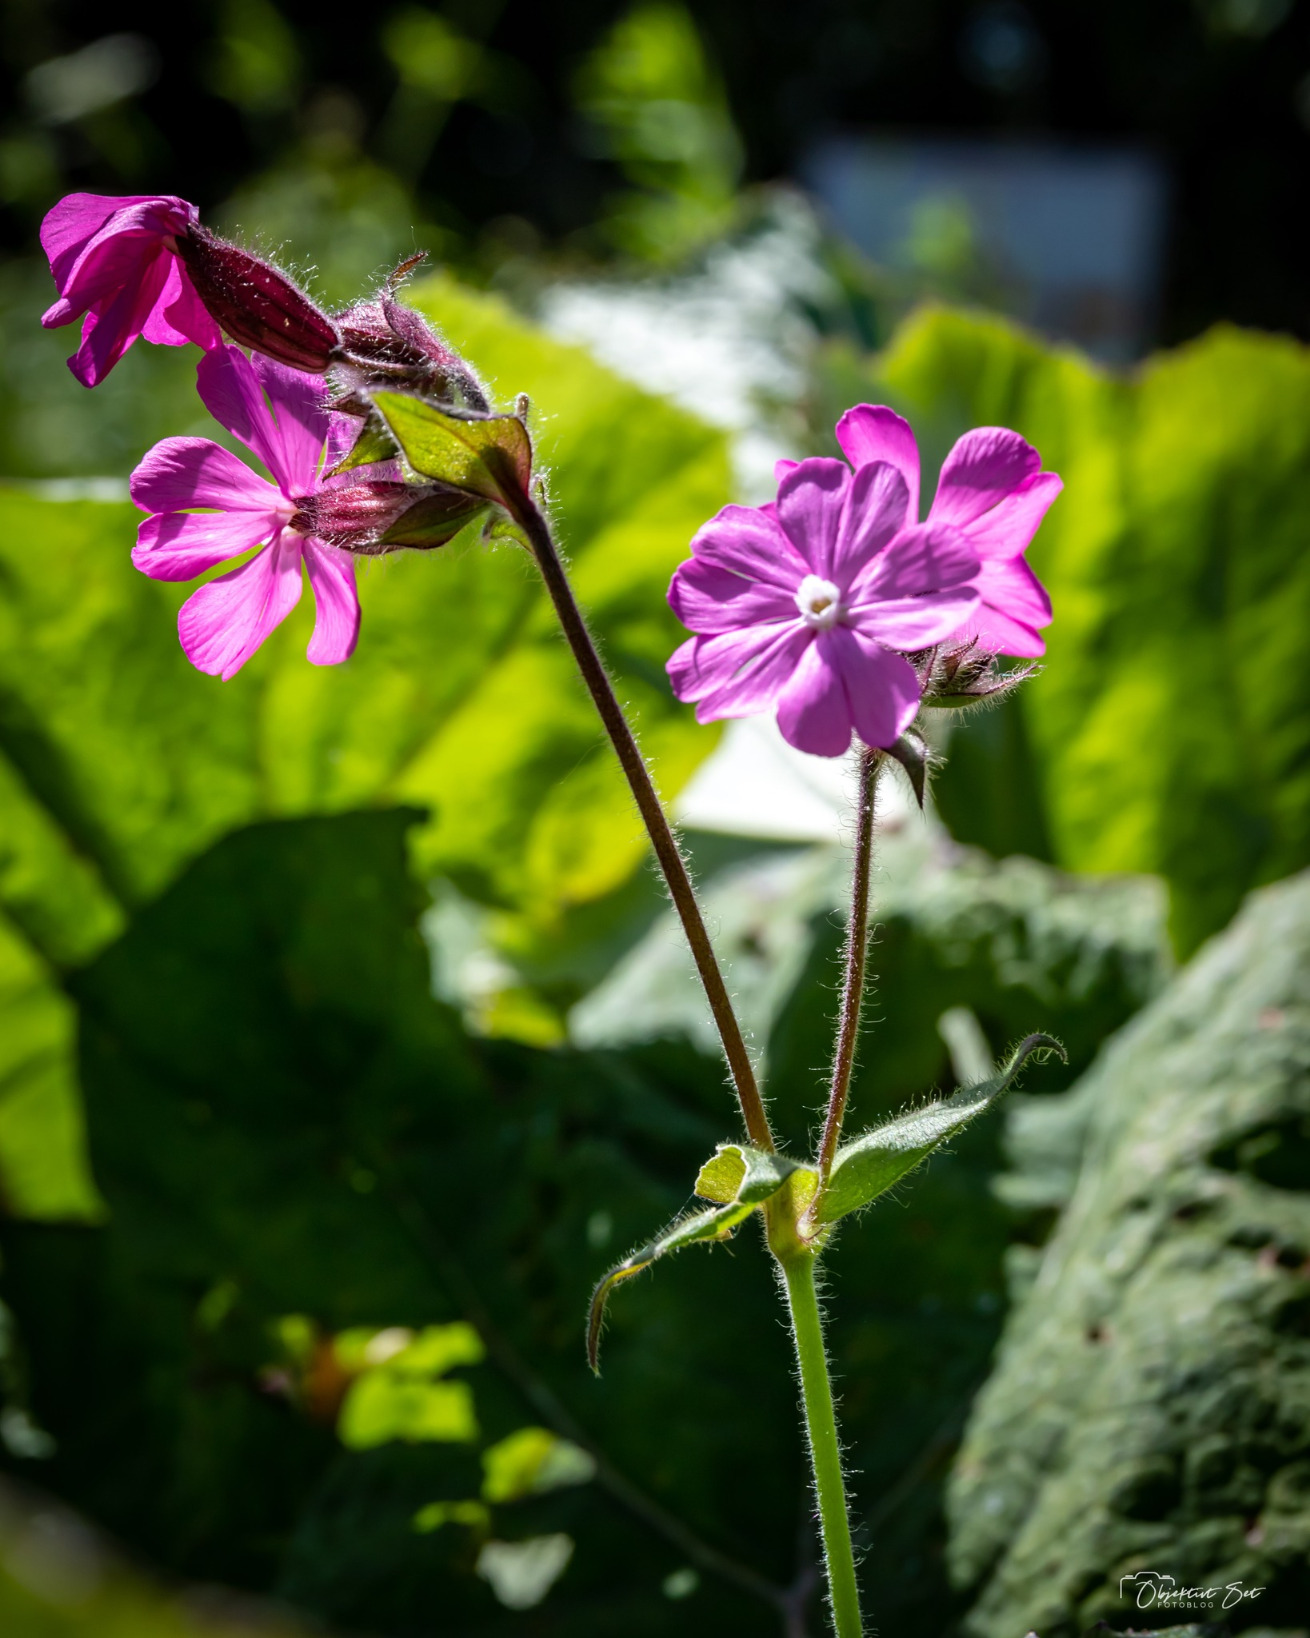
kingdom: Plantae
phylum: Tracheophyta
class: Magnoliopsida
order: Caryophyllales
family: Caryophyllaceae
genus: Silene
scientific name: Silene dioica
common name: Dagpragtstjerne
